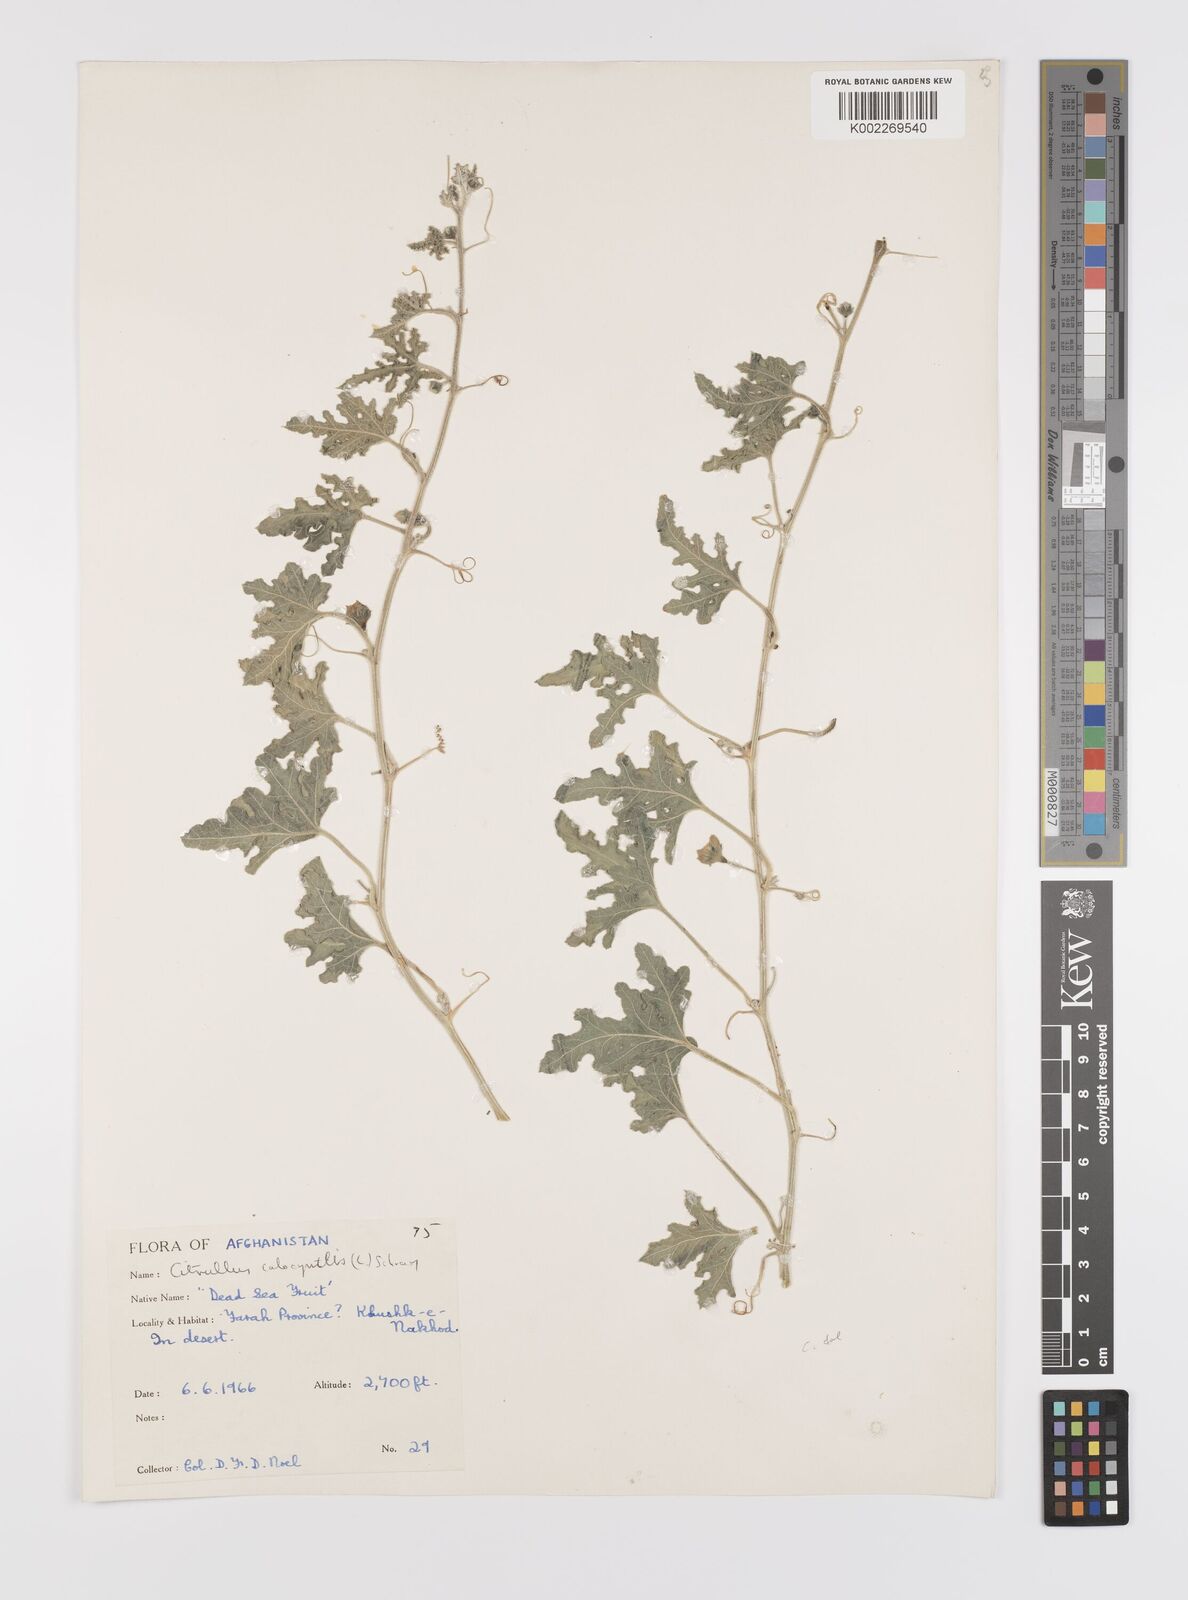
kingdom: Plantae
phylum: Tracheophyta
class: Magnoliopsida
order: Cucurbitales
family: Cucurbitaceae
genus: Citrullus
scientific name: Citrullus colocynthis
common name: Colocynth
